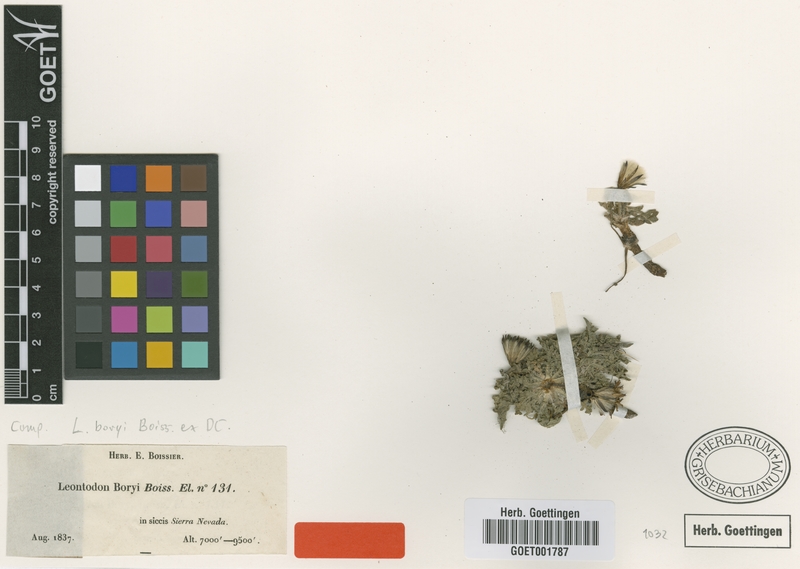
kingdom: Plantae
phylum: Tracheophyta
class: Magnoliopsida
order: Asterales
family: Asteraceae
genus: Leontodon
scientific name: Leontodon boryi
